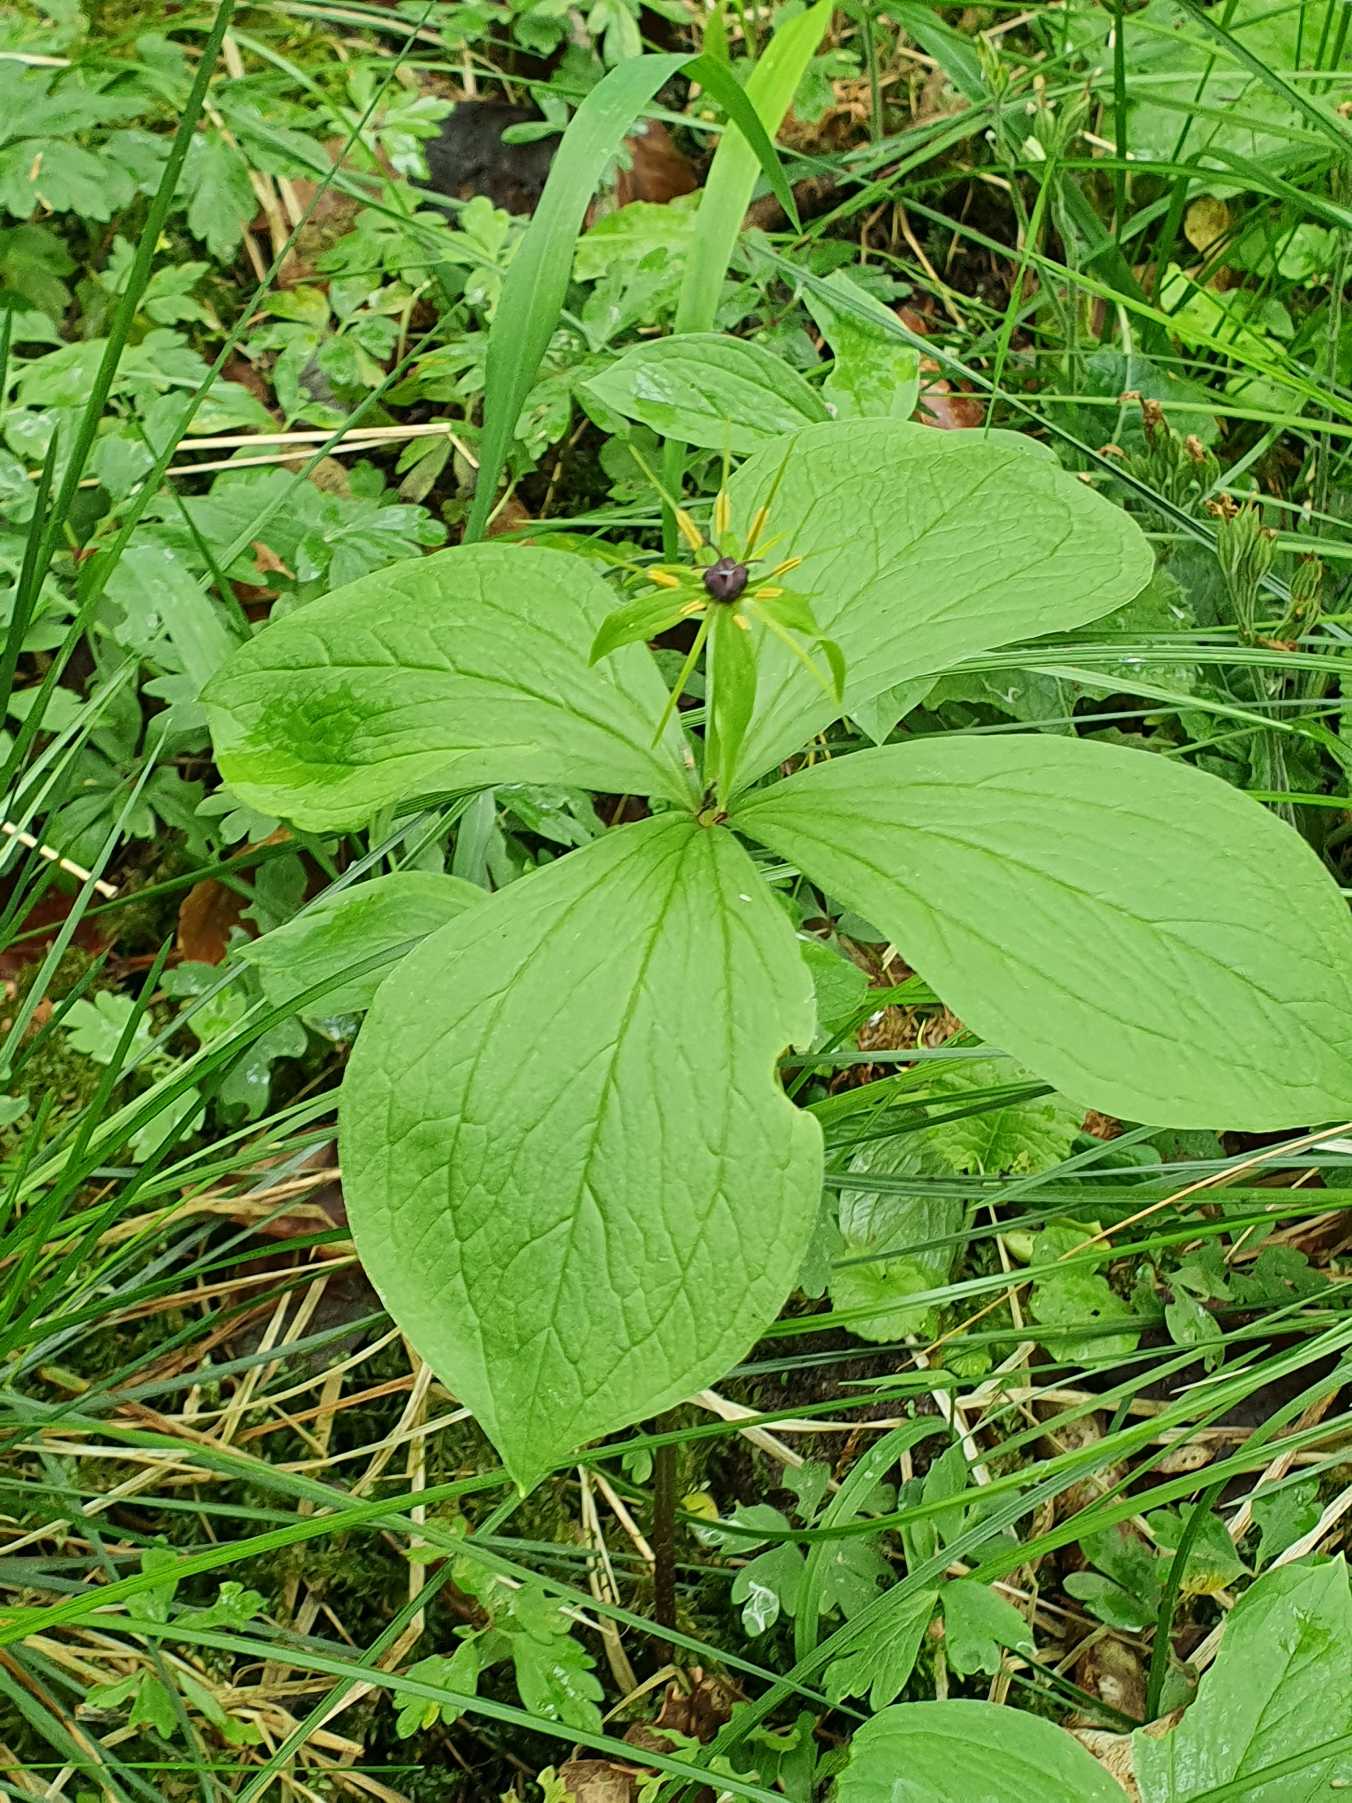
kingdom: Plantae
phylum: Tracheophyta
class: Liliopsida
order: Liliales
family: Melanthiaceae
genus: Paris
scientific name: Paris quadrifolia
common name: Firblad
